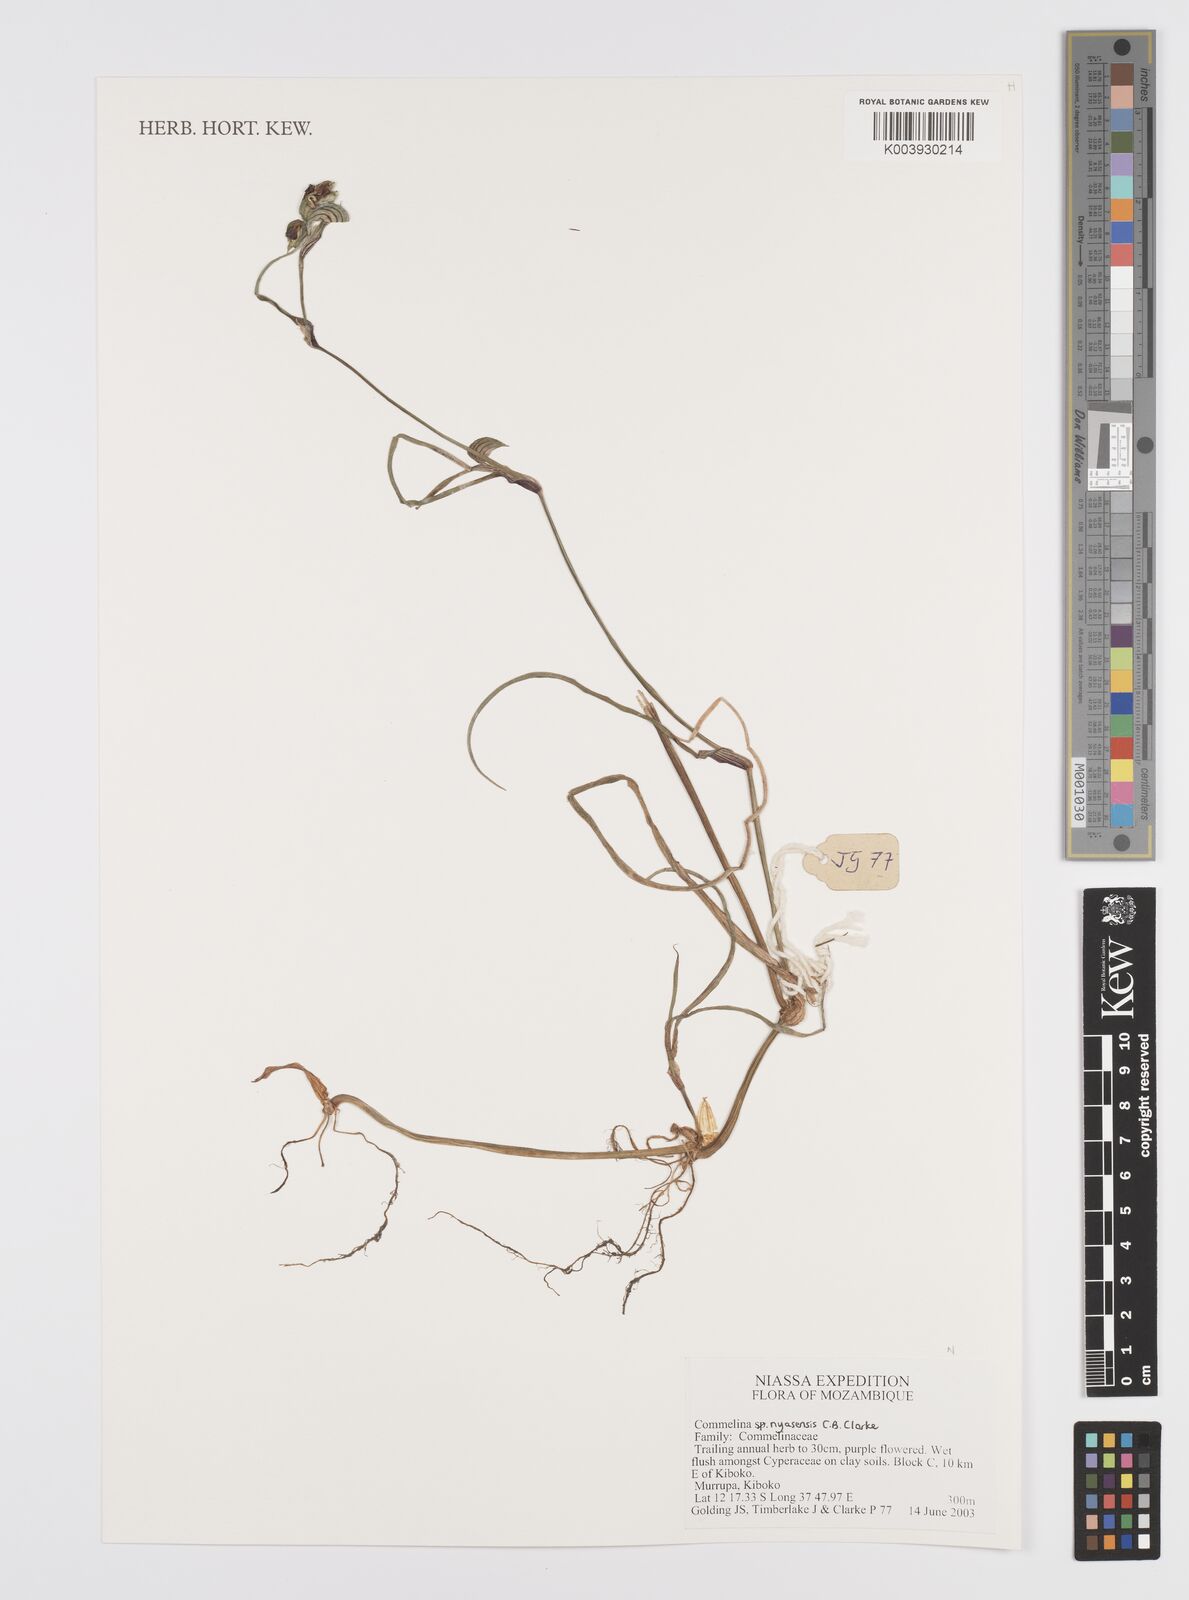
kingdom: Plantae
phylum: Tracheophyta
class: Liliopsida
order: Commelinales
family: Commelinaceae
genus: Commelina
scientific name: Commelina nyasensis
